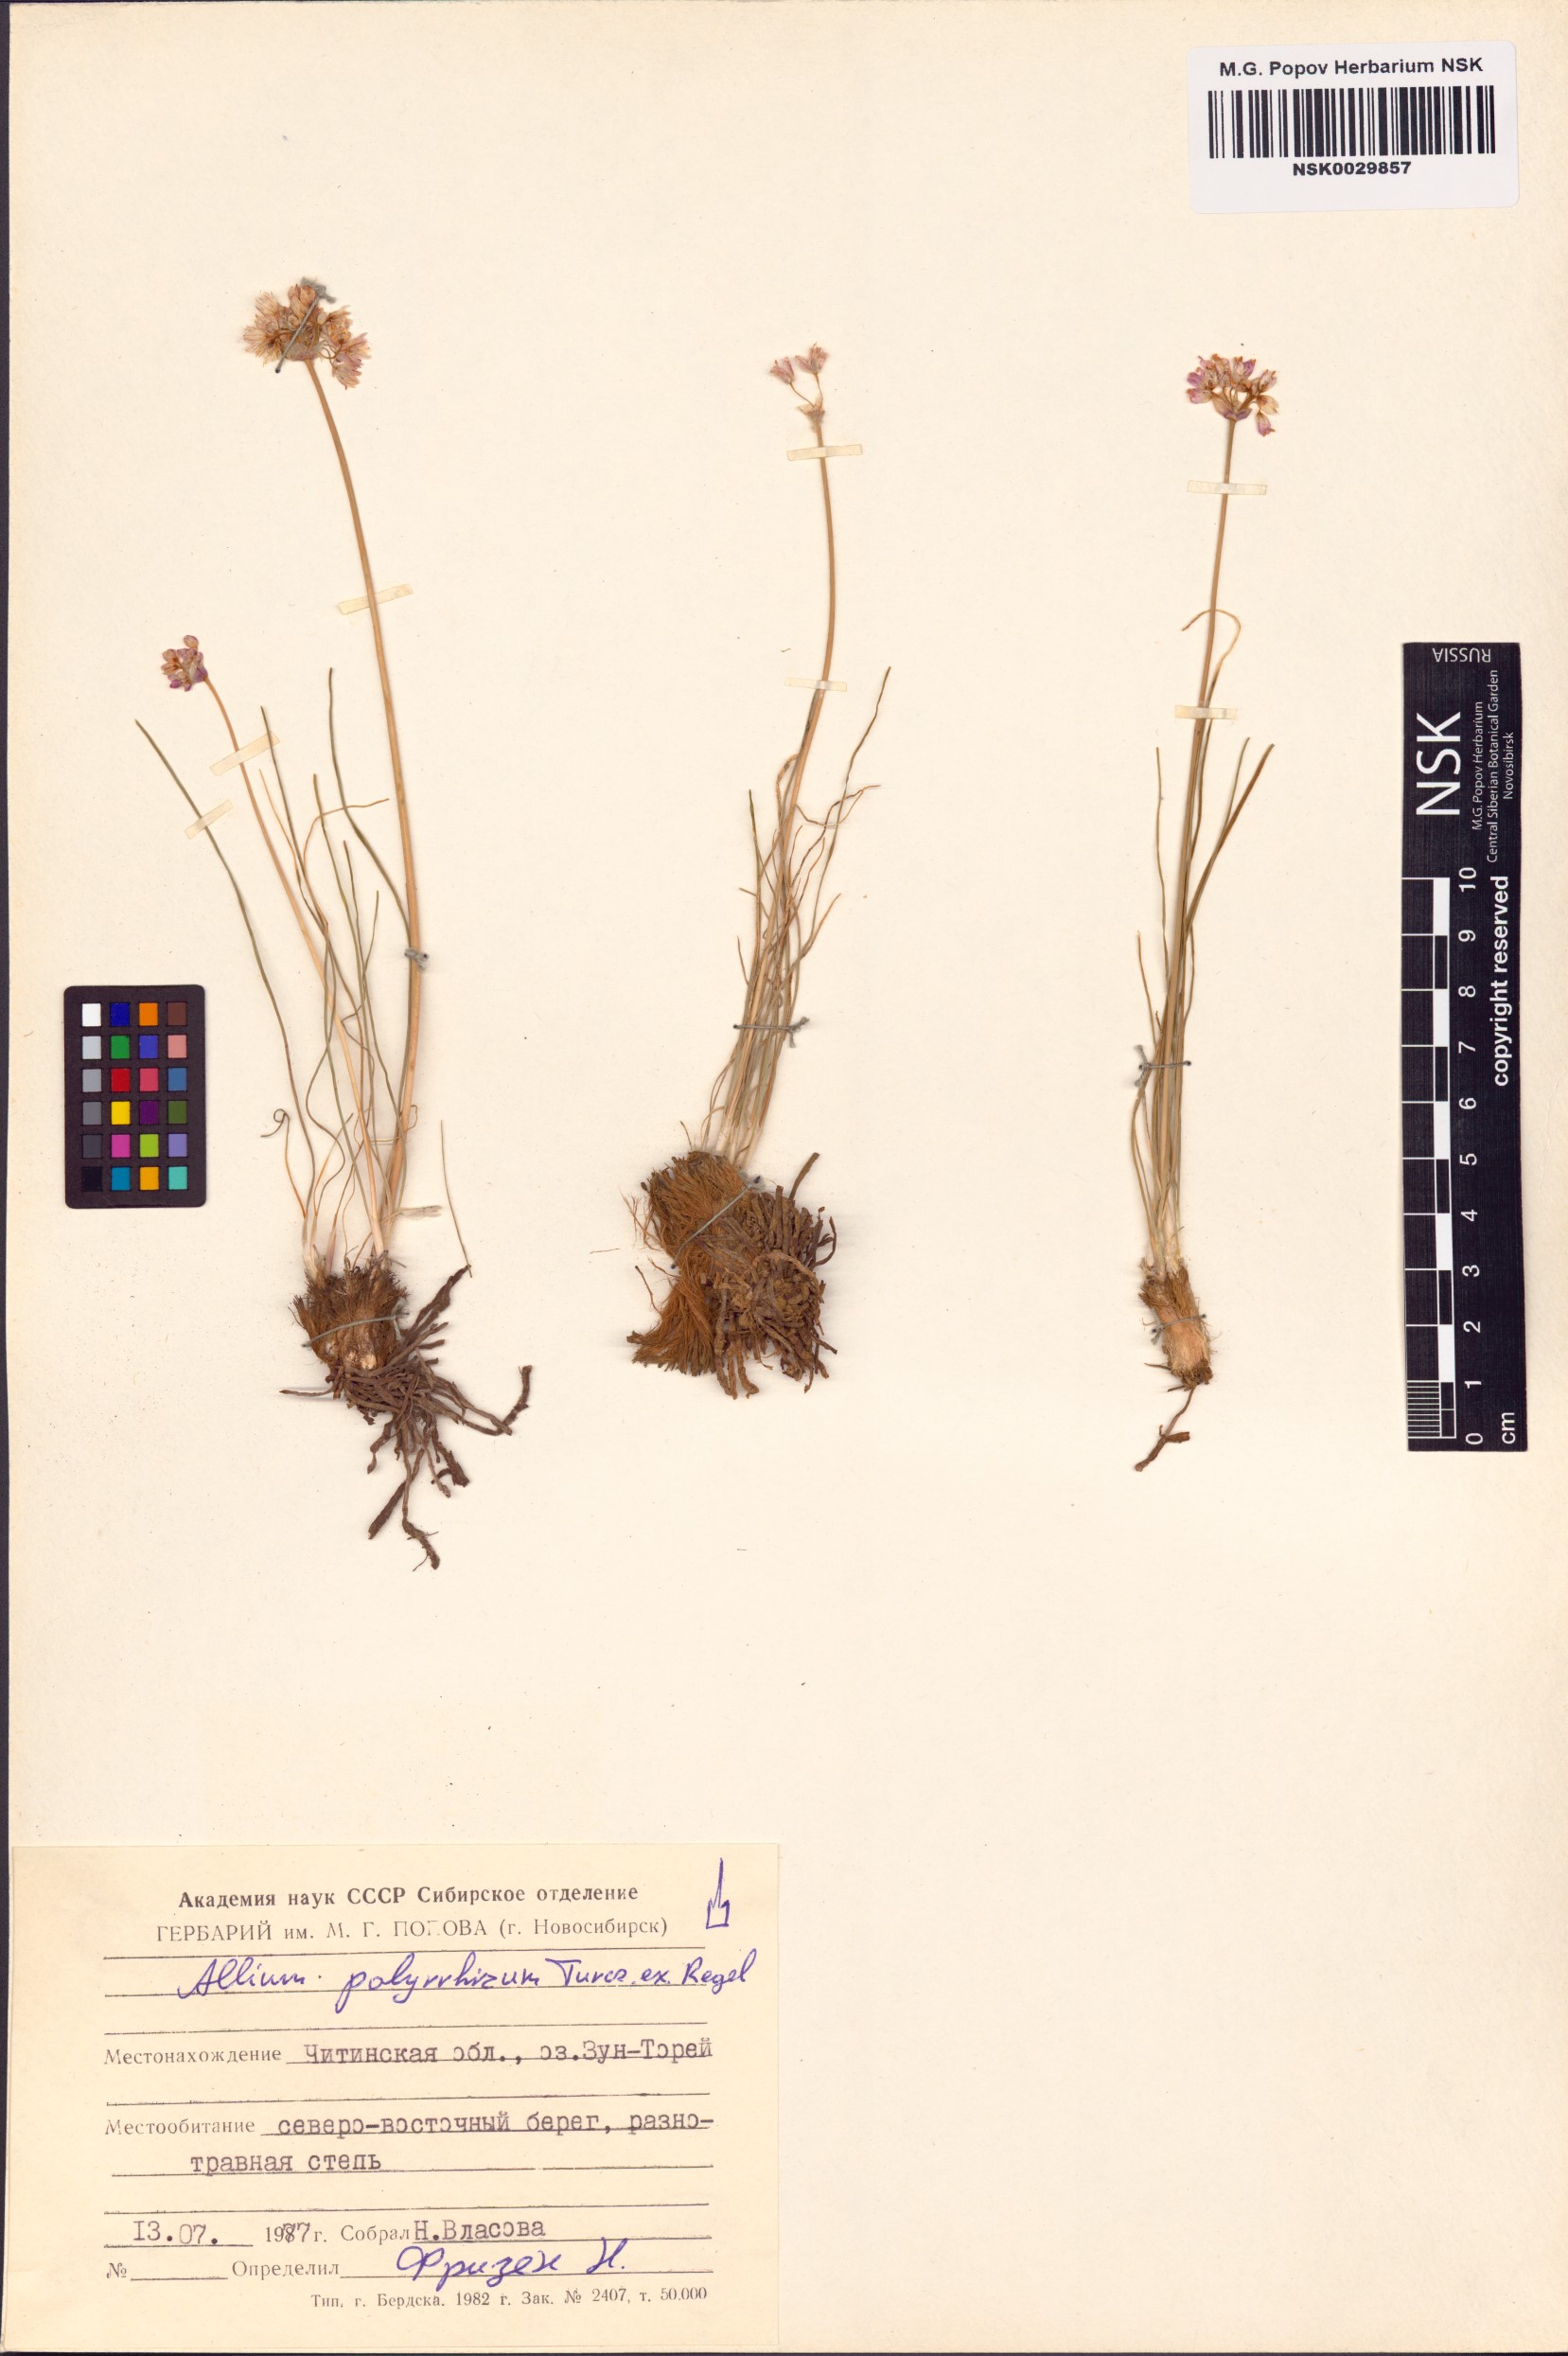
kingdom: Plantae
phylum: Tracheophyta
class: Liliopsida
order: Asparagales
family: Amaryllidaceae
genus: Allium
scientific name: Allium polyrhizum
